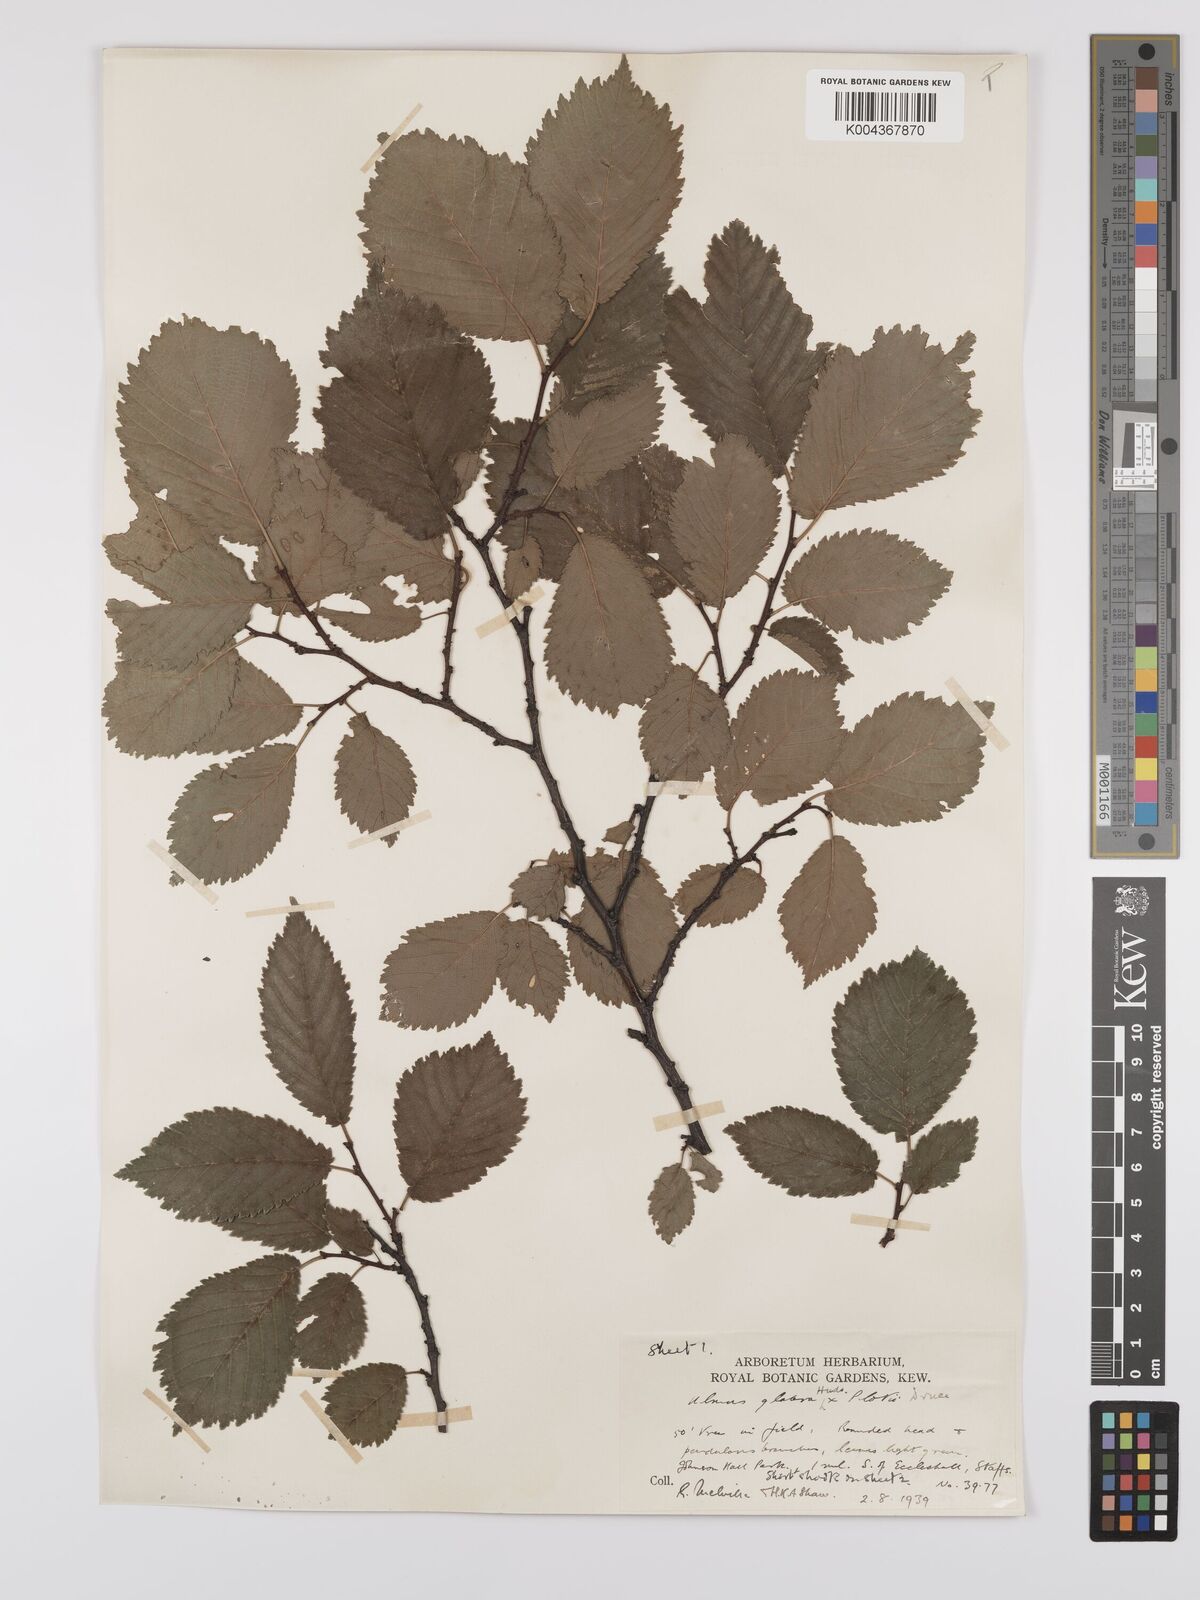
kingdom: Plantae
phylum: Tracheophyta
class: Magnoliopsida
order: Rosales
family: Ulmaceae
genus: Ulmus
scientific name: Ulmus
